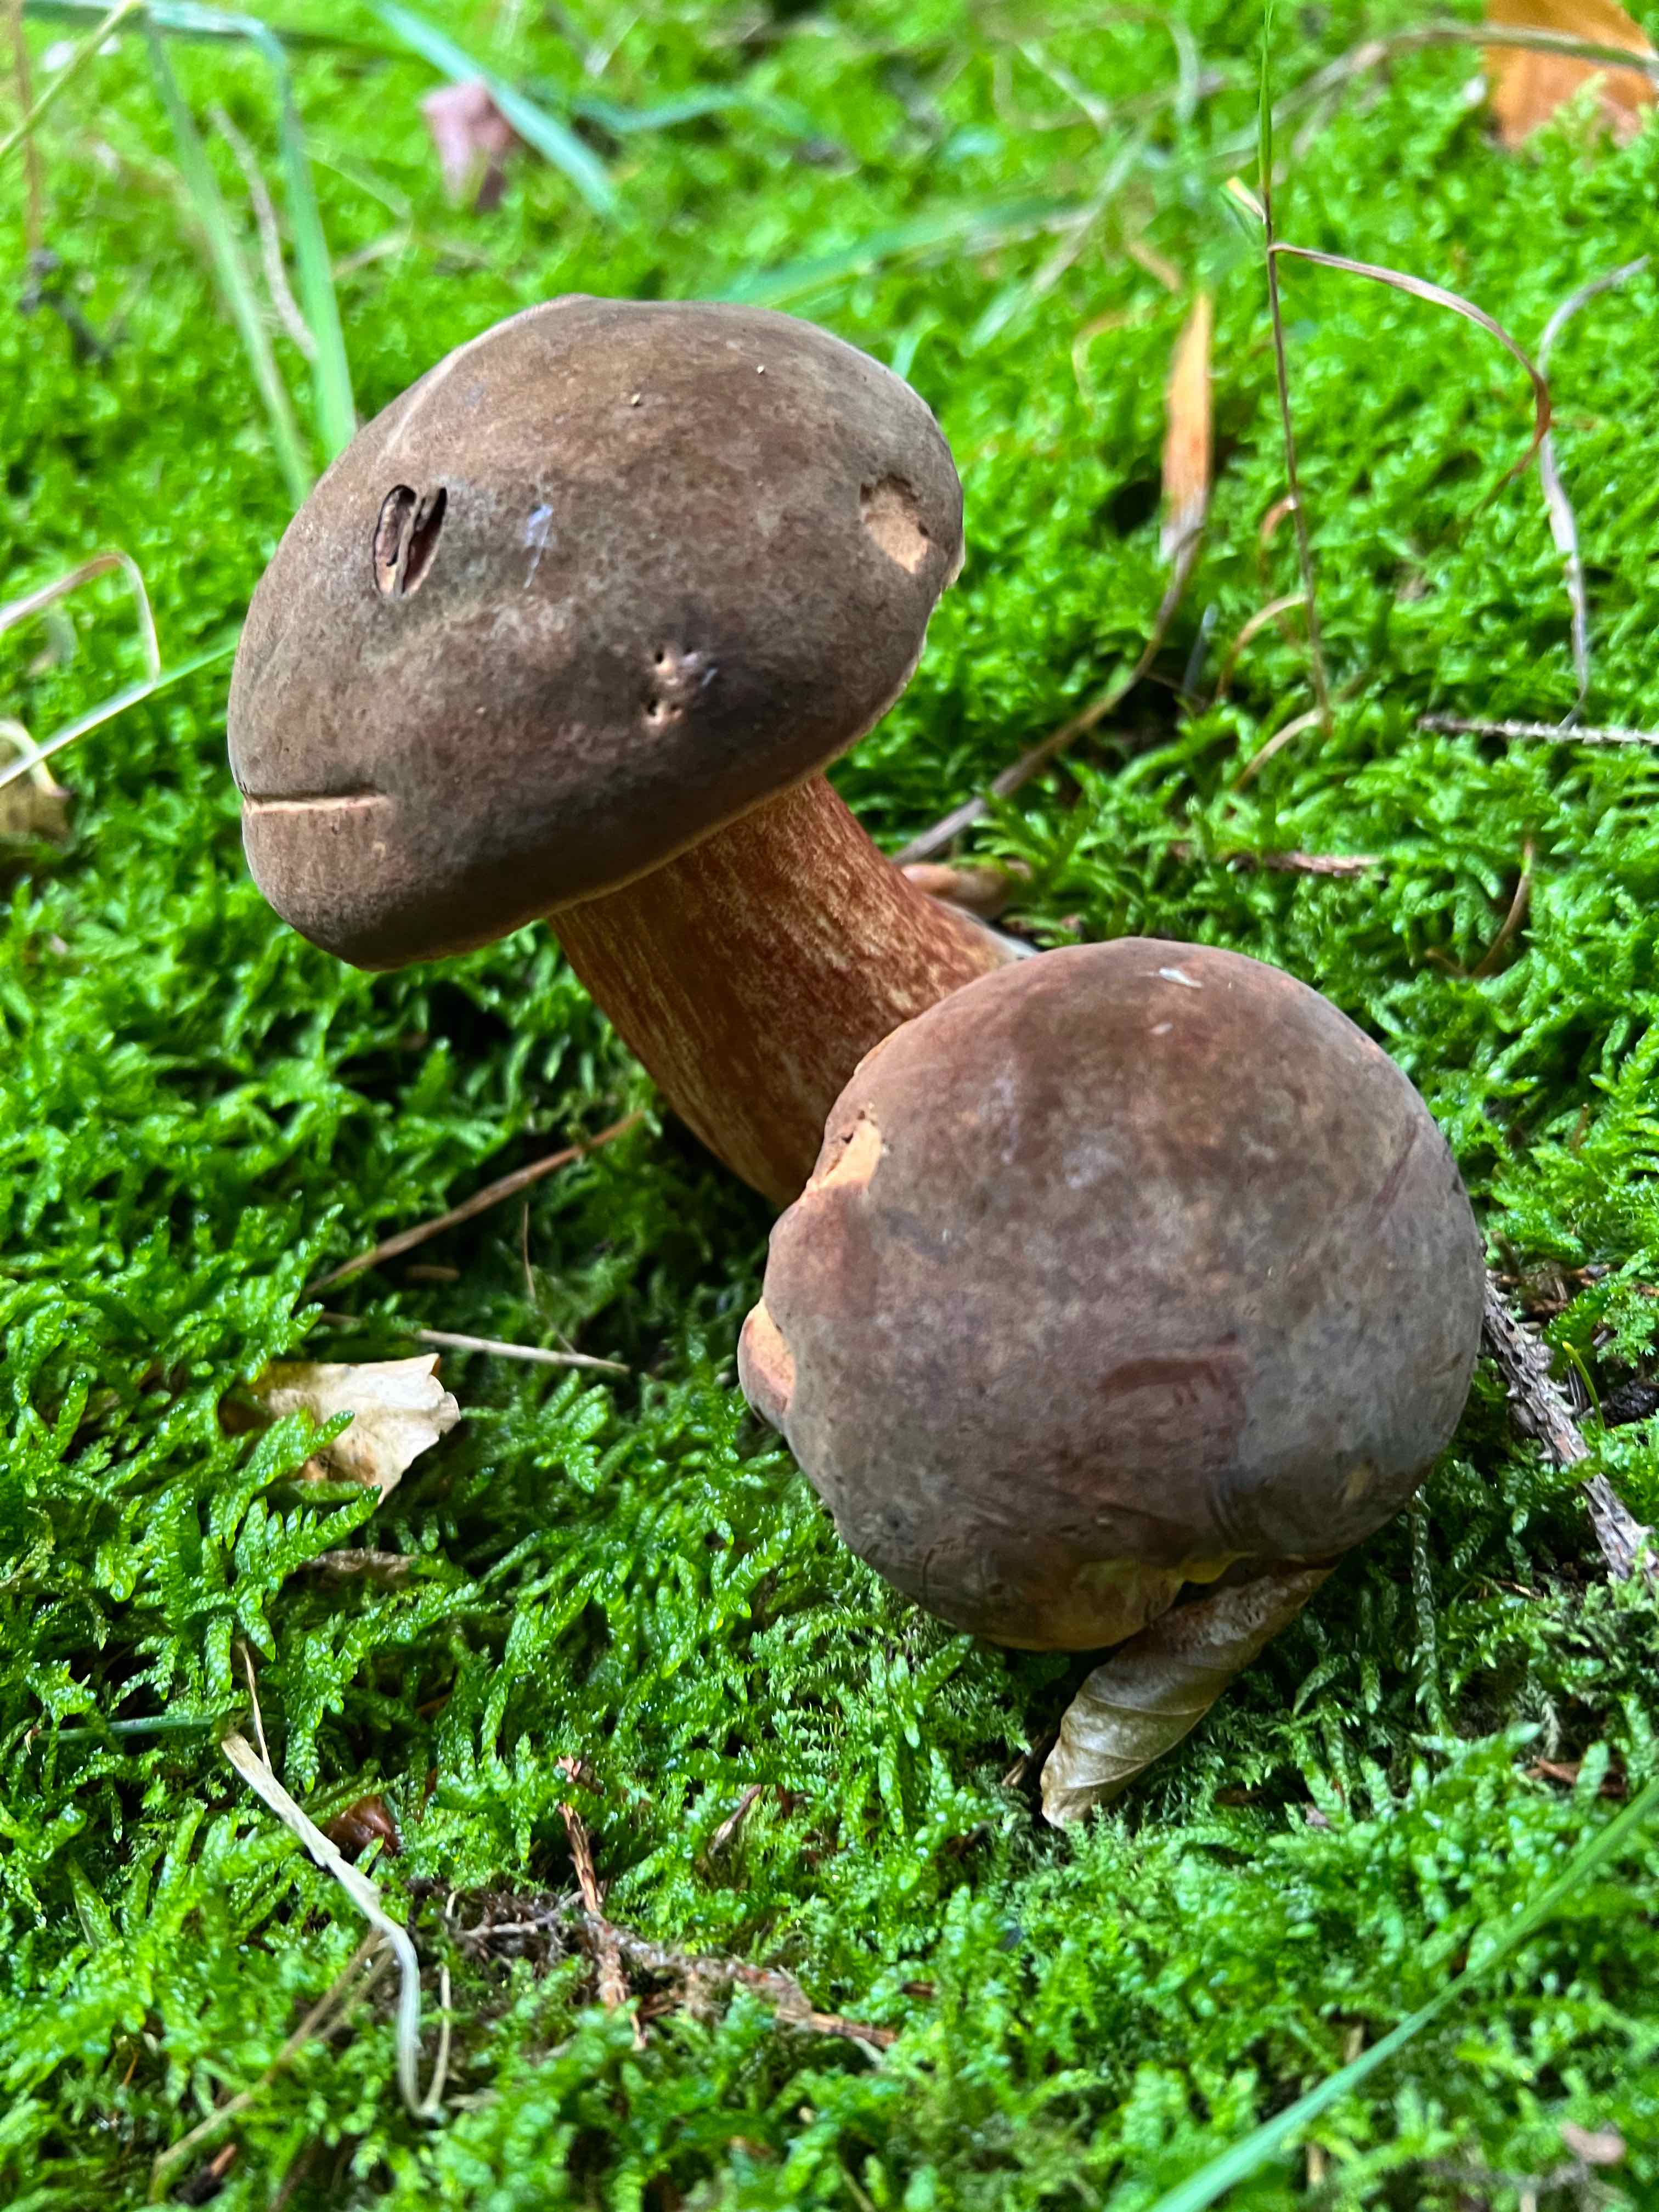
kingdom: Fungi
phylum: Basidiomycota
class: Agaricomycetes
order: Boletales
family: Boletaceae
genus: Neoboletus
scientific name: Neoboletus erythropus
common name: punktstokket indigorørhat
